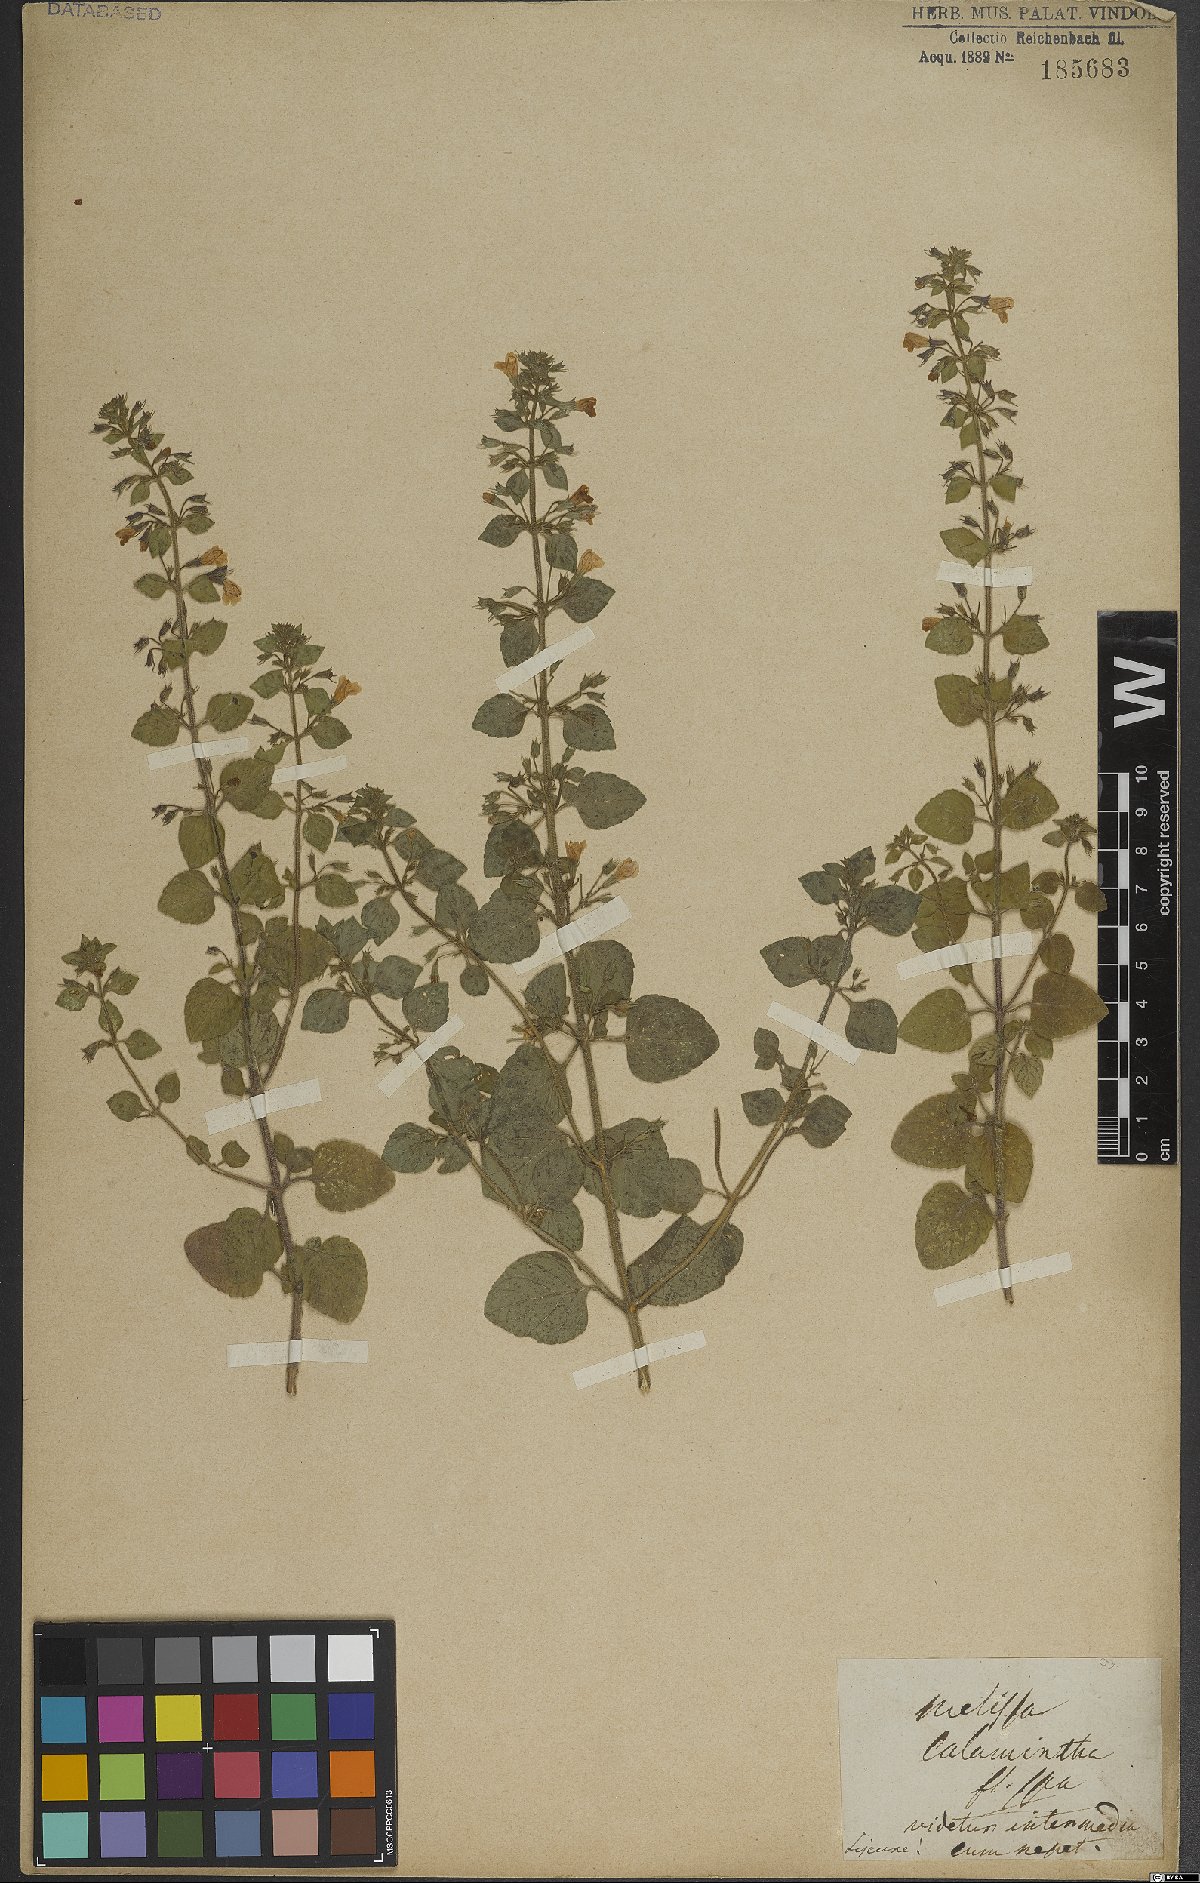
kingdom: Plantae
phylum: Tracheophyta
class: Magnoliopsida
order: Lamiales
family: Lamiaceae
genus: Clinopodium
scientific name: Clinopodium menthifolium
